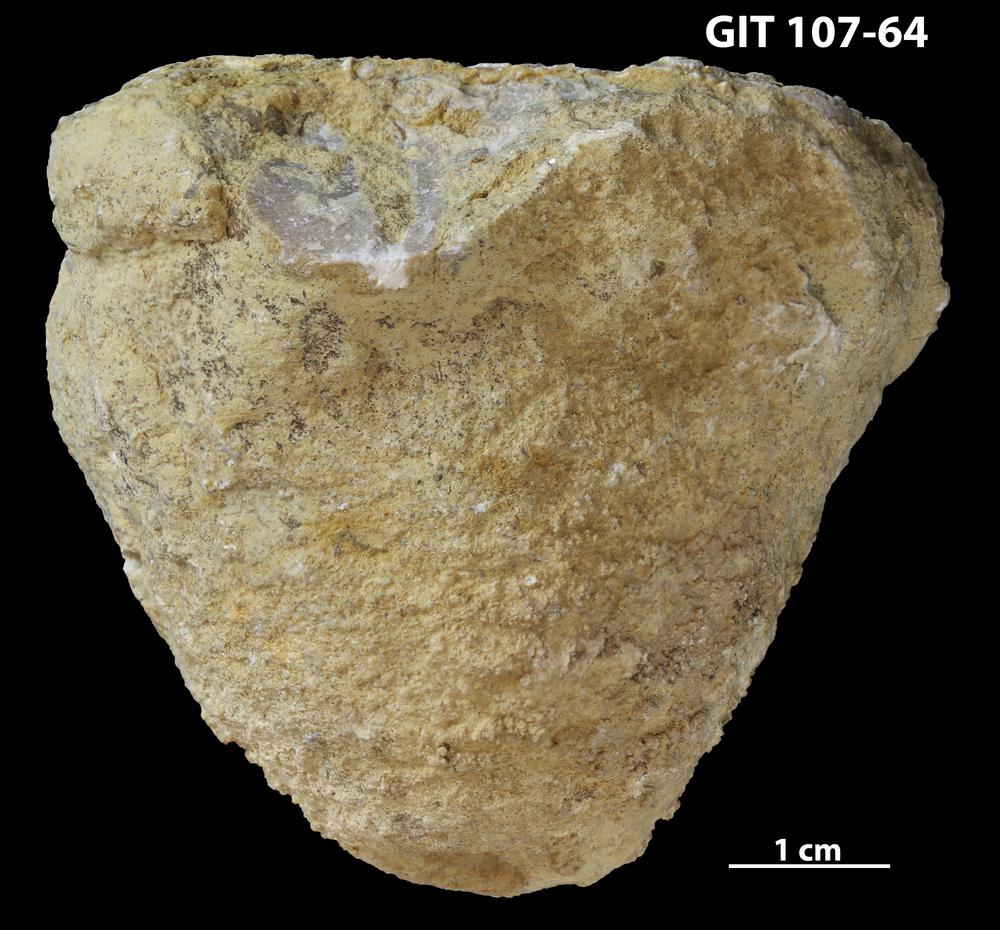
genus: Conichnus
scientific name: Conichnus
